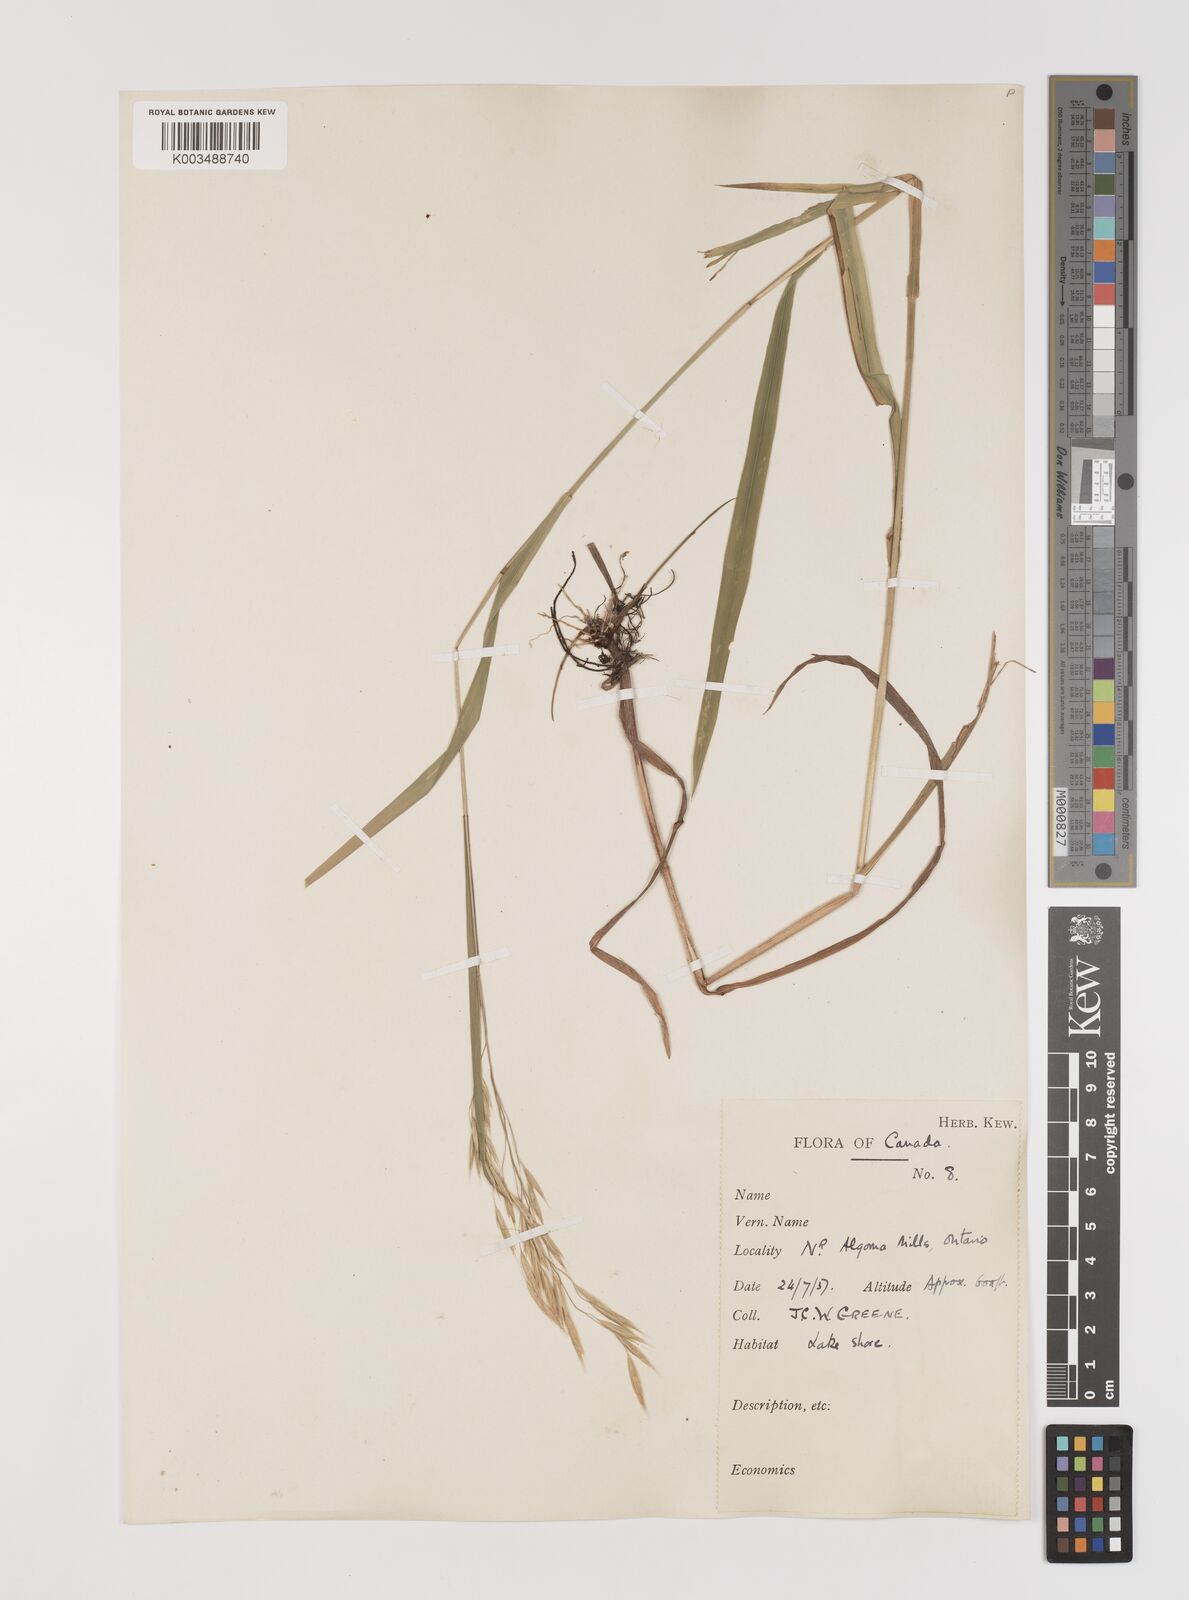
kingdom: Plantae
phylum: Tracheophyta
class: Liliopsida
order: Poales
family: Poaceae
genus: Bromus
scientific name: Bromus
